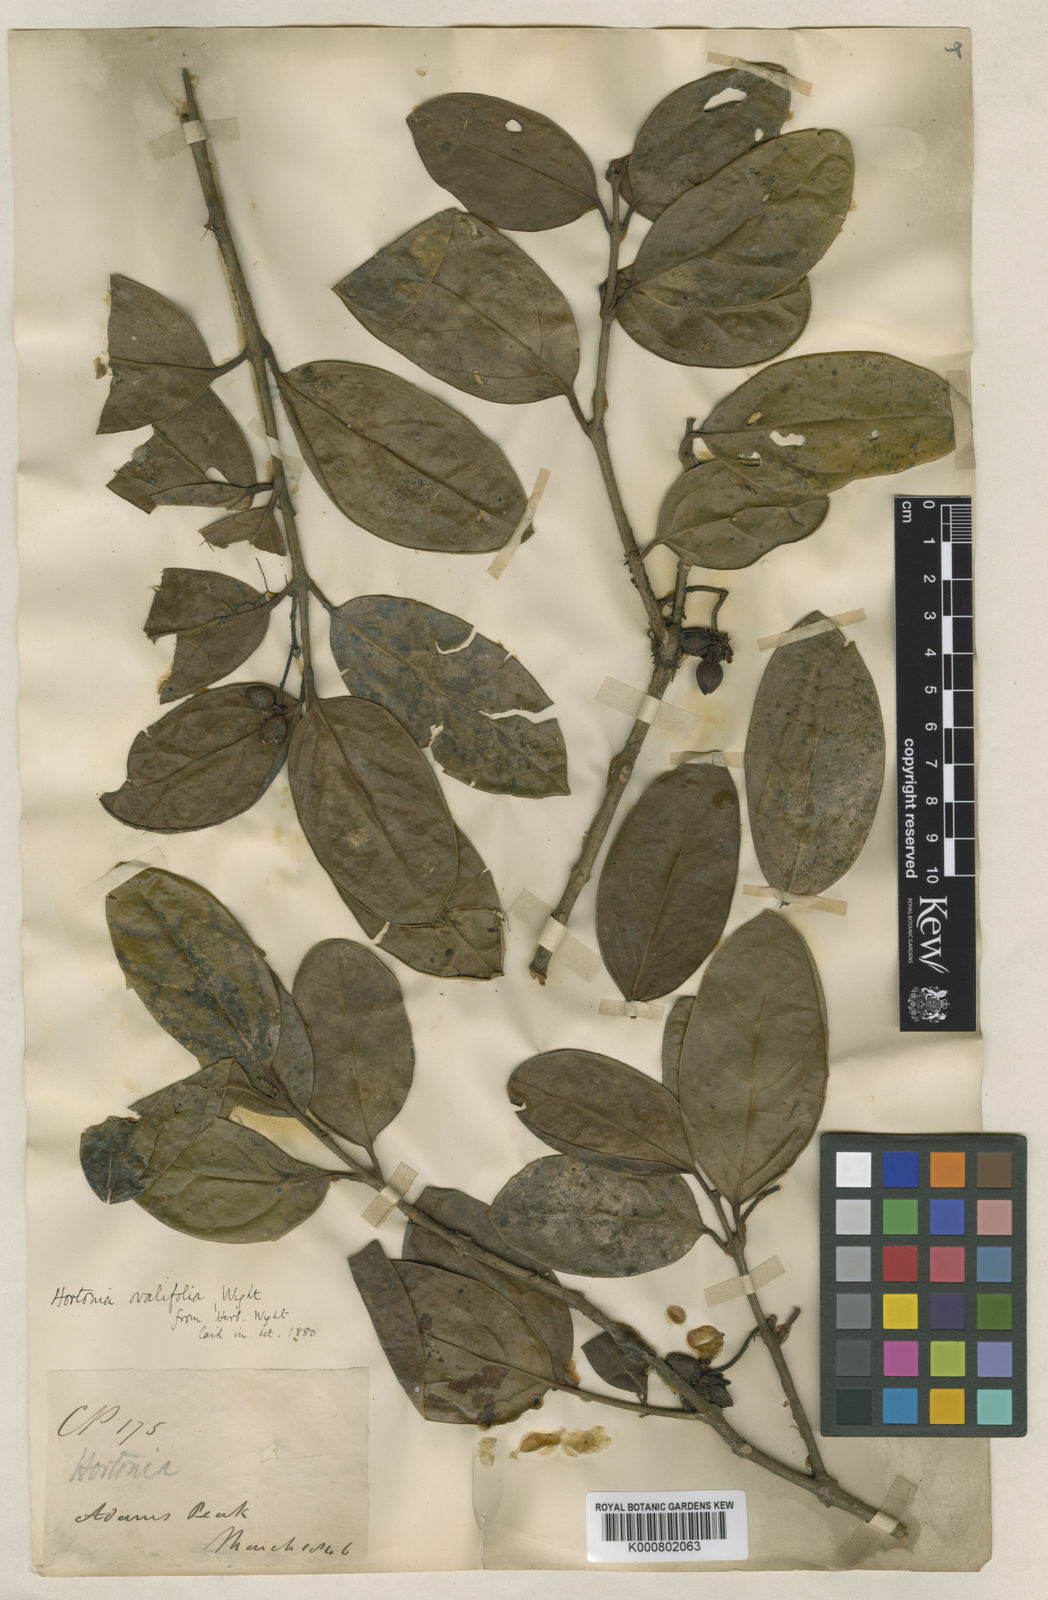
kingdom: Plantae
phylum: Tracheophyta
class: Magnoliopsida
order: Laurales
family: Monimiaceae
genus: Hortonia
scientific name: Hortonia ovalifolia
